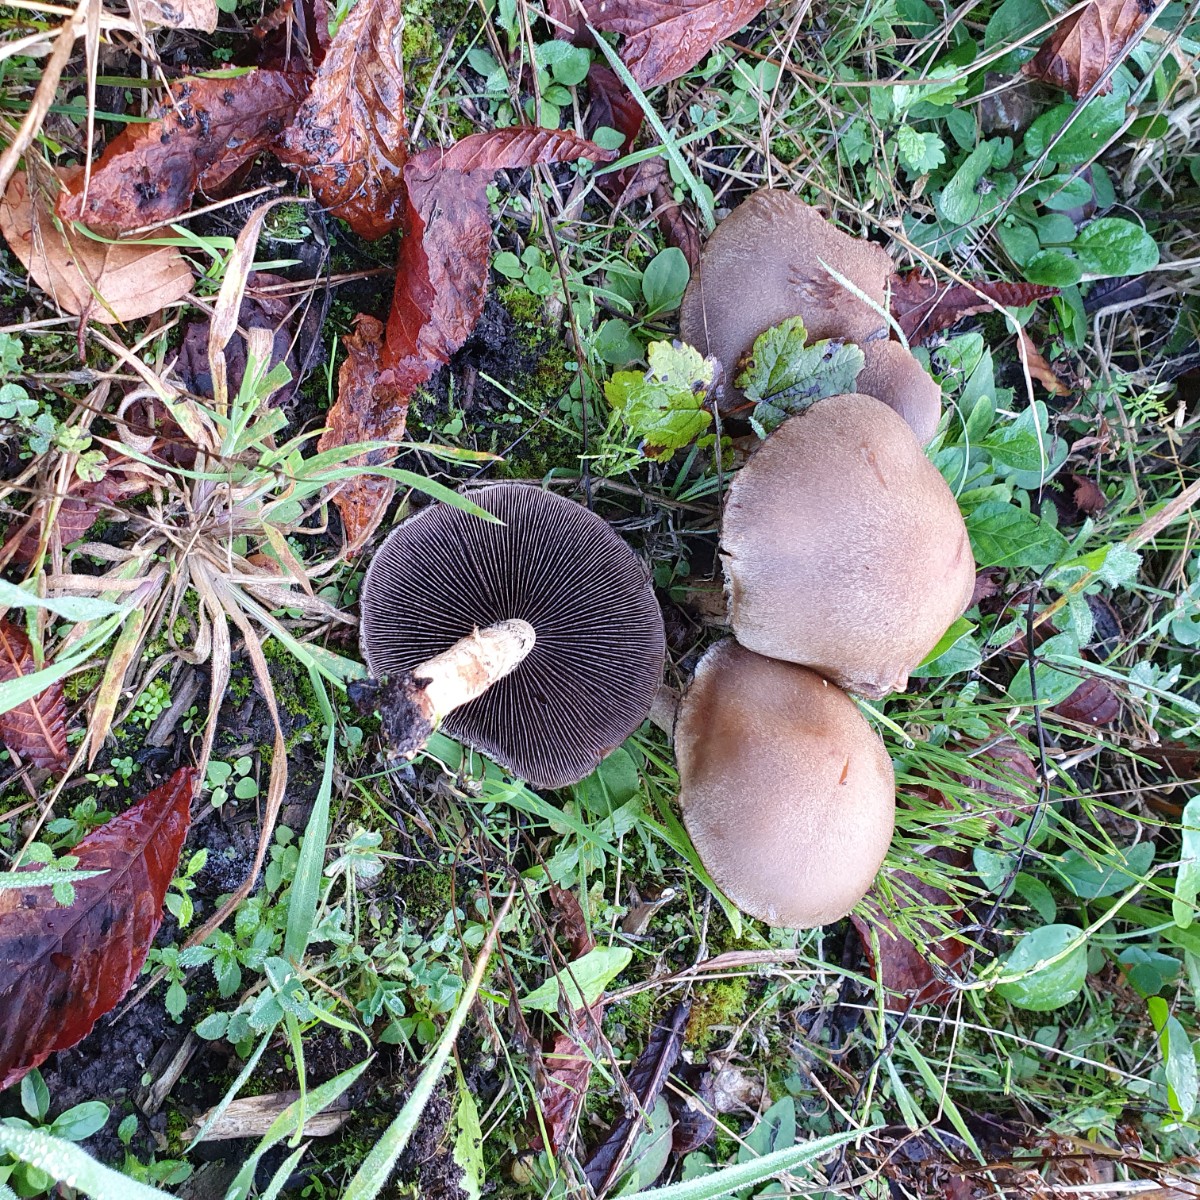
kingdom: Fungi
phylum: Basidiomycota
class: Agaricomycetes
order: Agaricales
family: Psathyrellaceae
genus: Lacrymaria
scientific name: Lacrymaria lacrymabunda
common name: grædende mørkhat
